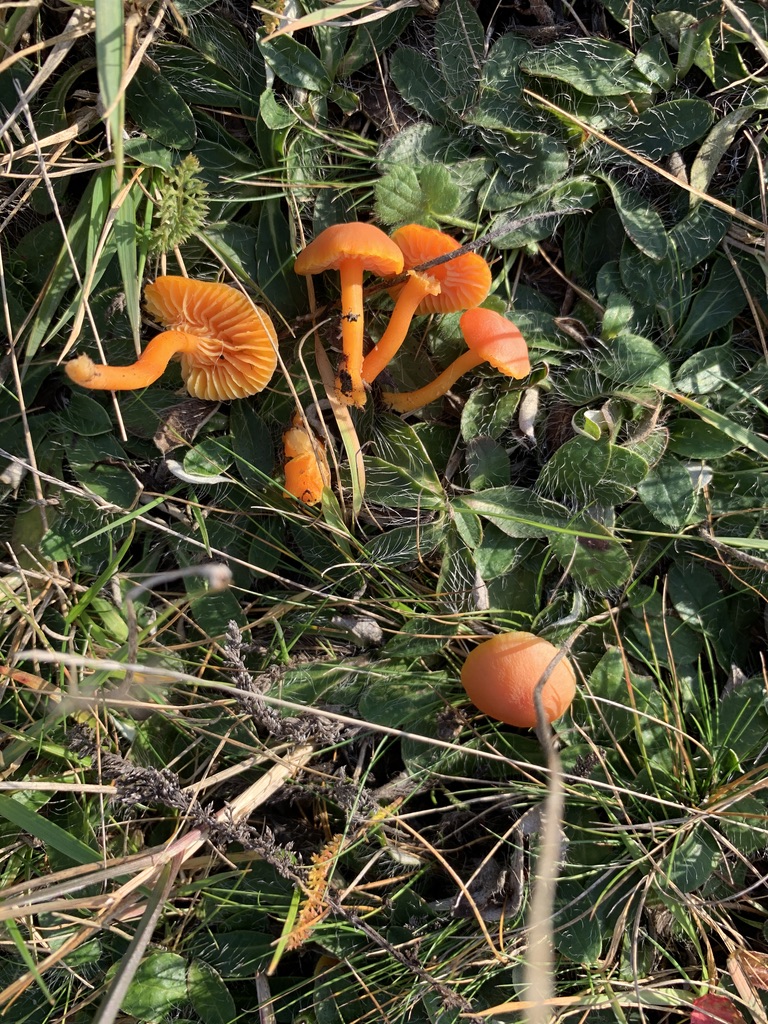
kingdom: Fungi
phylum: Basidiomycota
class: Agaricomycetes
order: Agaricales
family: Hygrophoraceae
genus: Hygrocybe
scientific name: Hygrocybe miniata
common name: mønje-vokshat
